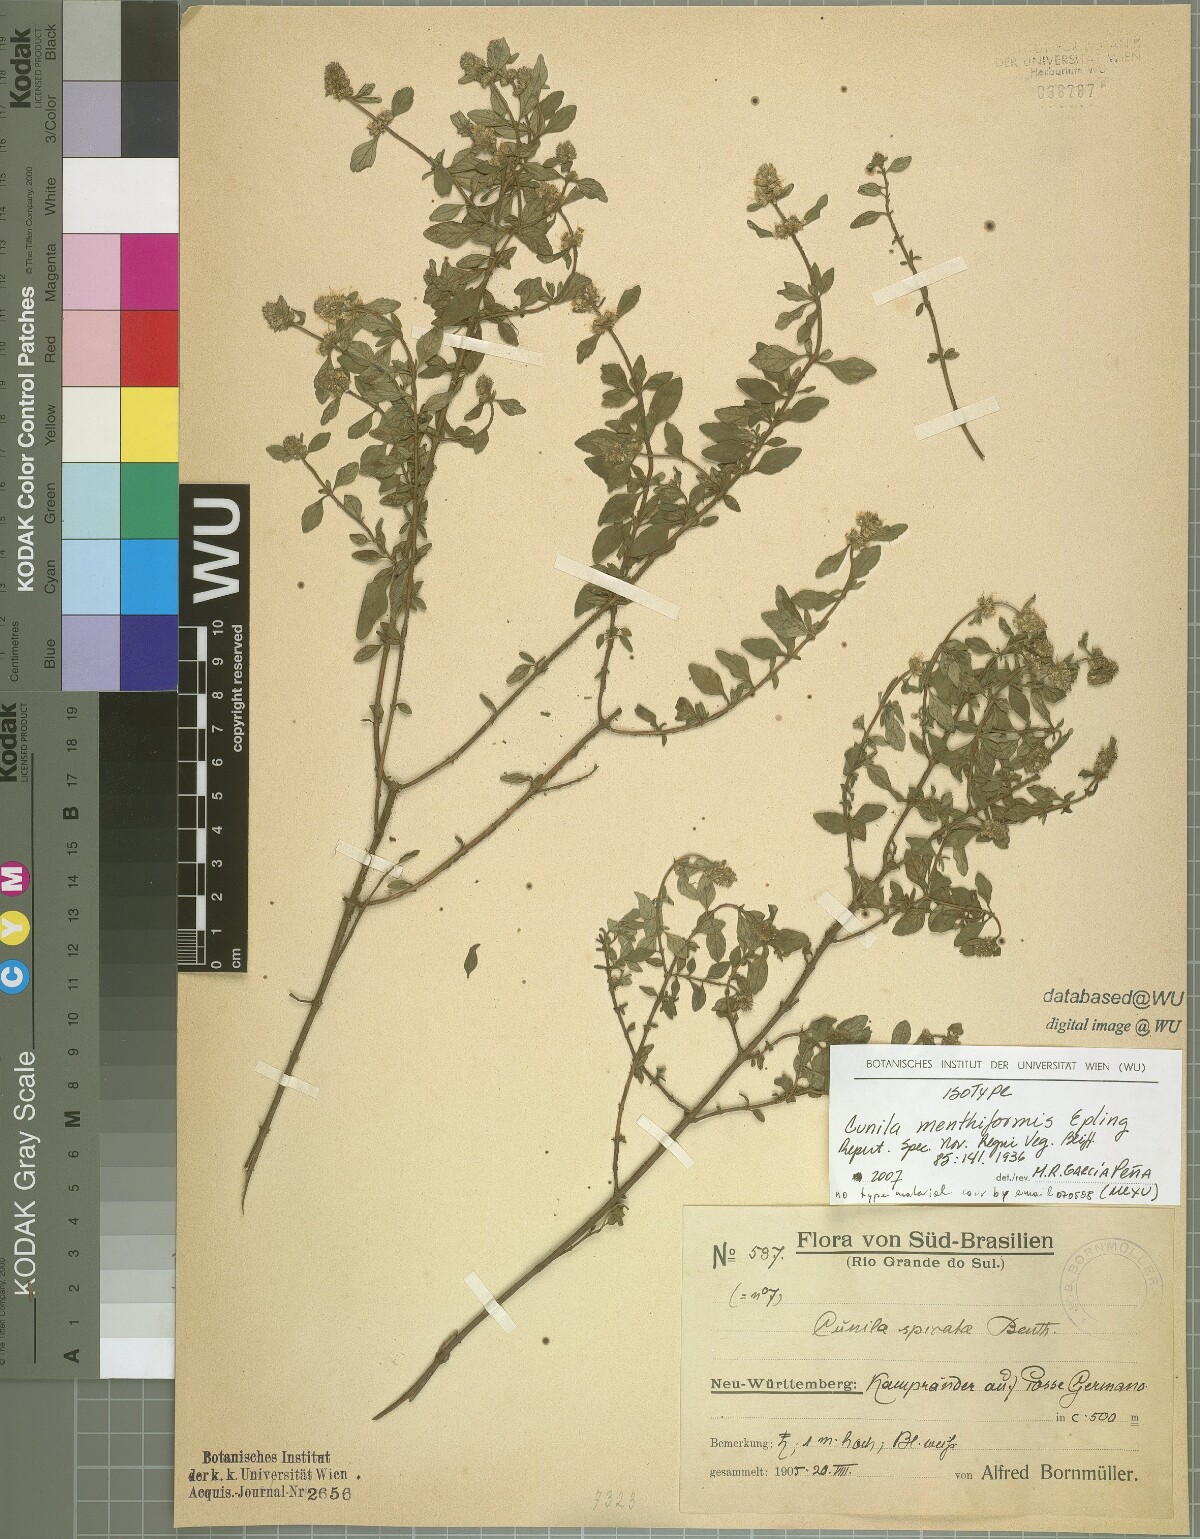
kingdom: Plantae
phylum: Tracheophyta
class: Magnoliopsida
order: Lamiales
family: Lamiaceae
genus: Cunila
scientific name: Cunila menthiformis
